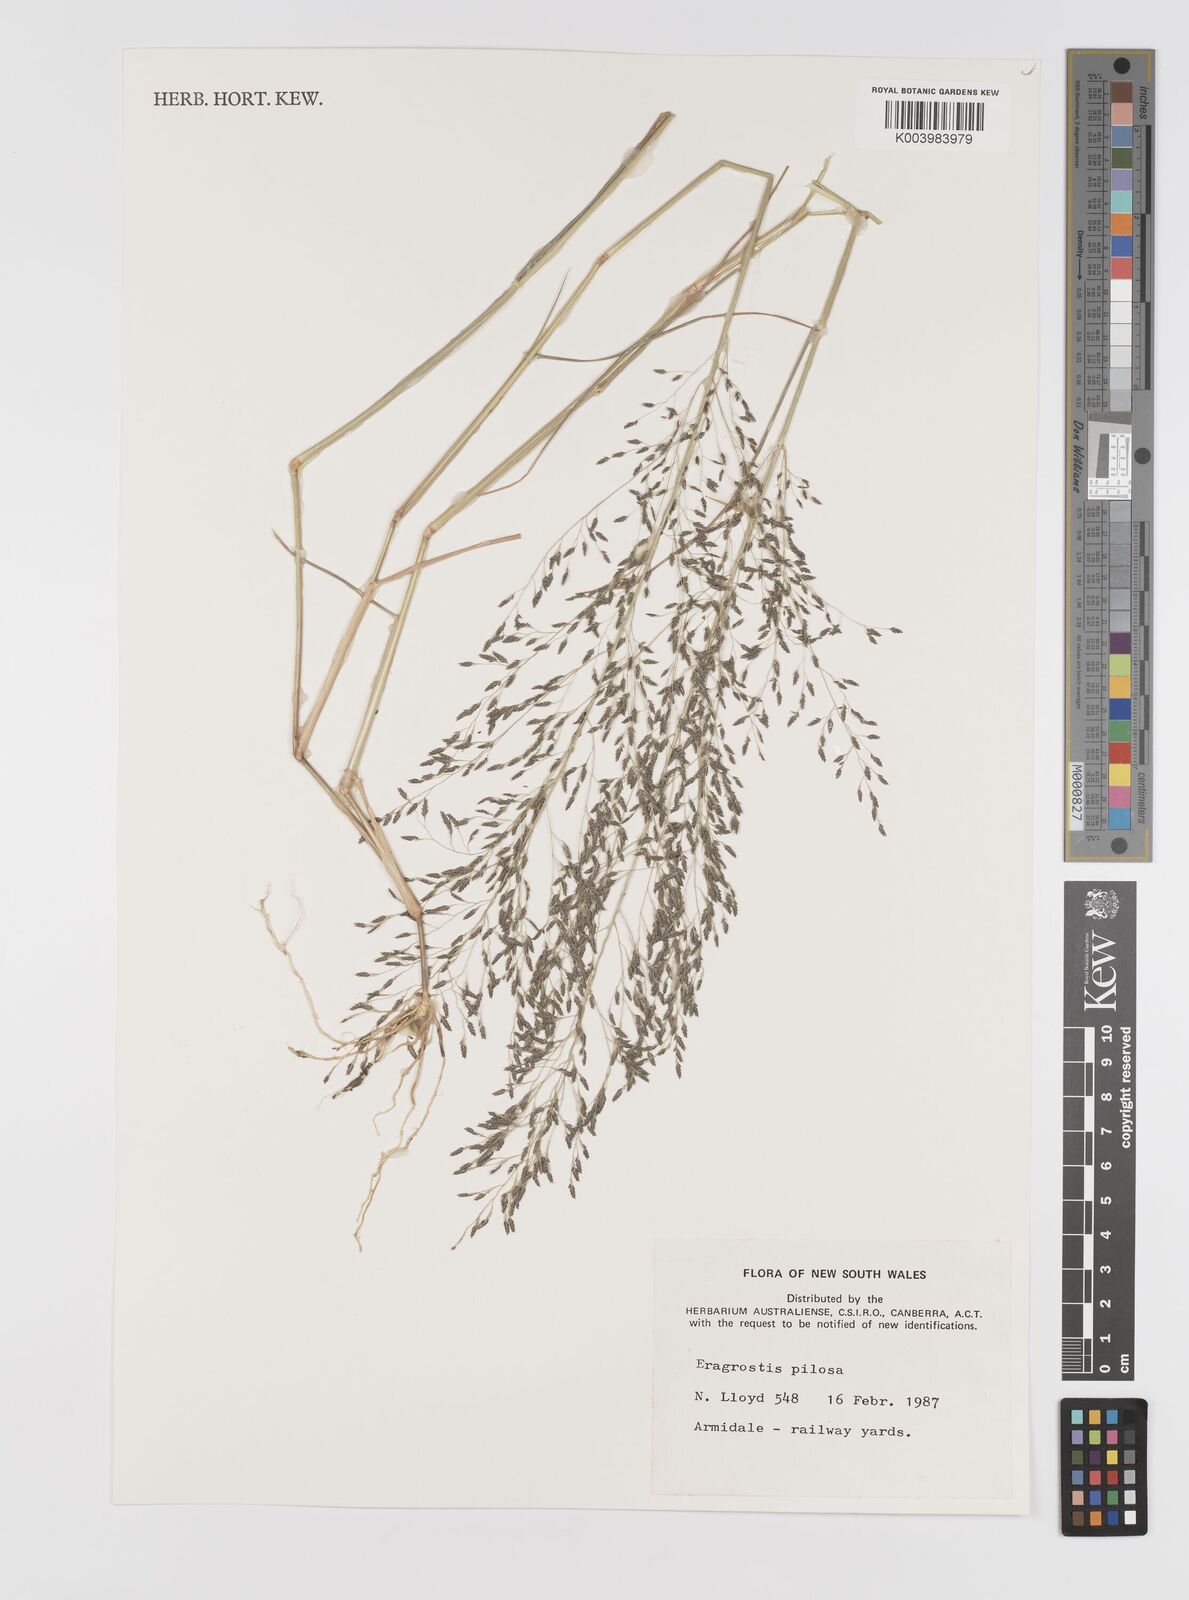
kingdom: Plantae
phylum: Tracheophyta
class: Liliopsida
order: Poales
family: Poaceae
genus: Eragrostis
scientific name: Eragrostis pilosa
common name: Indian lovegrass
